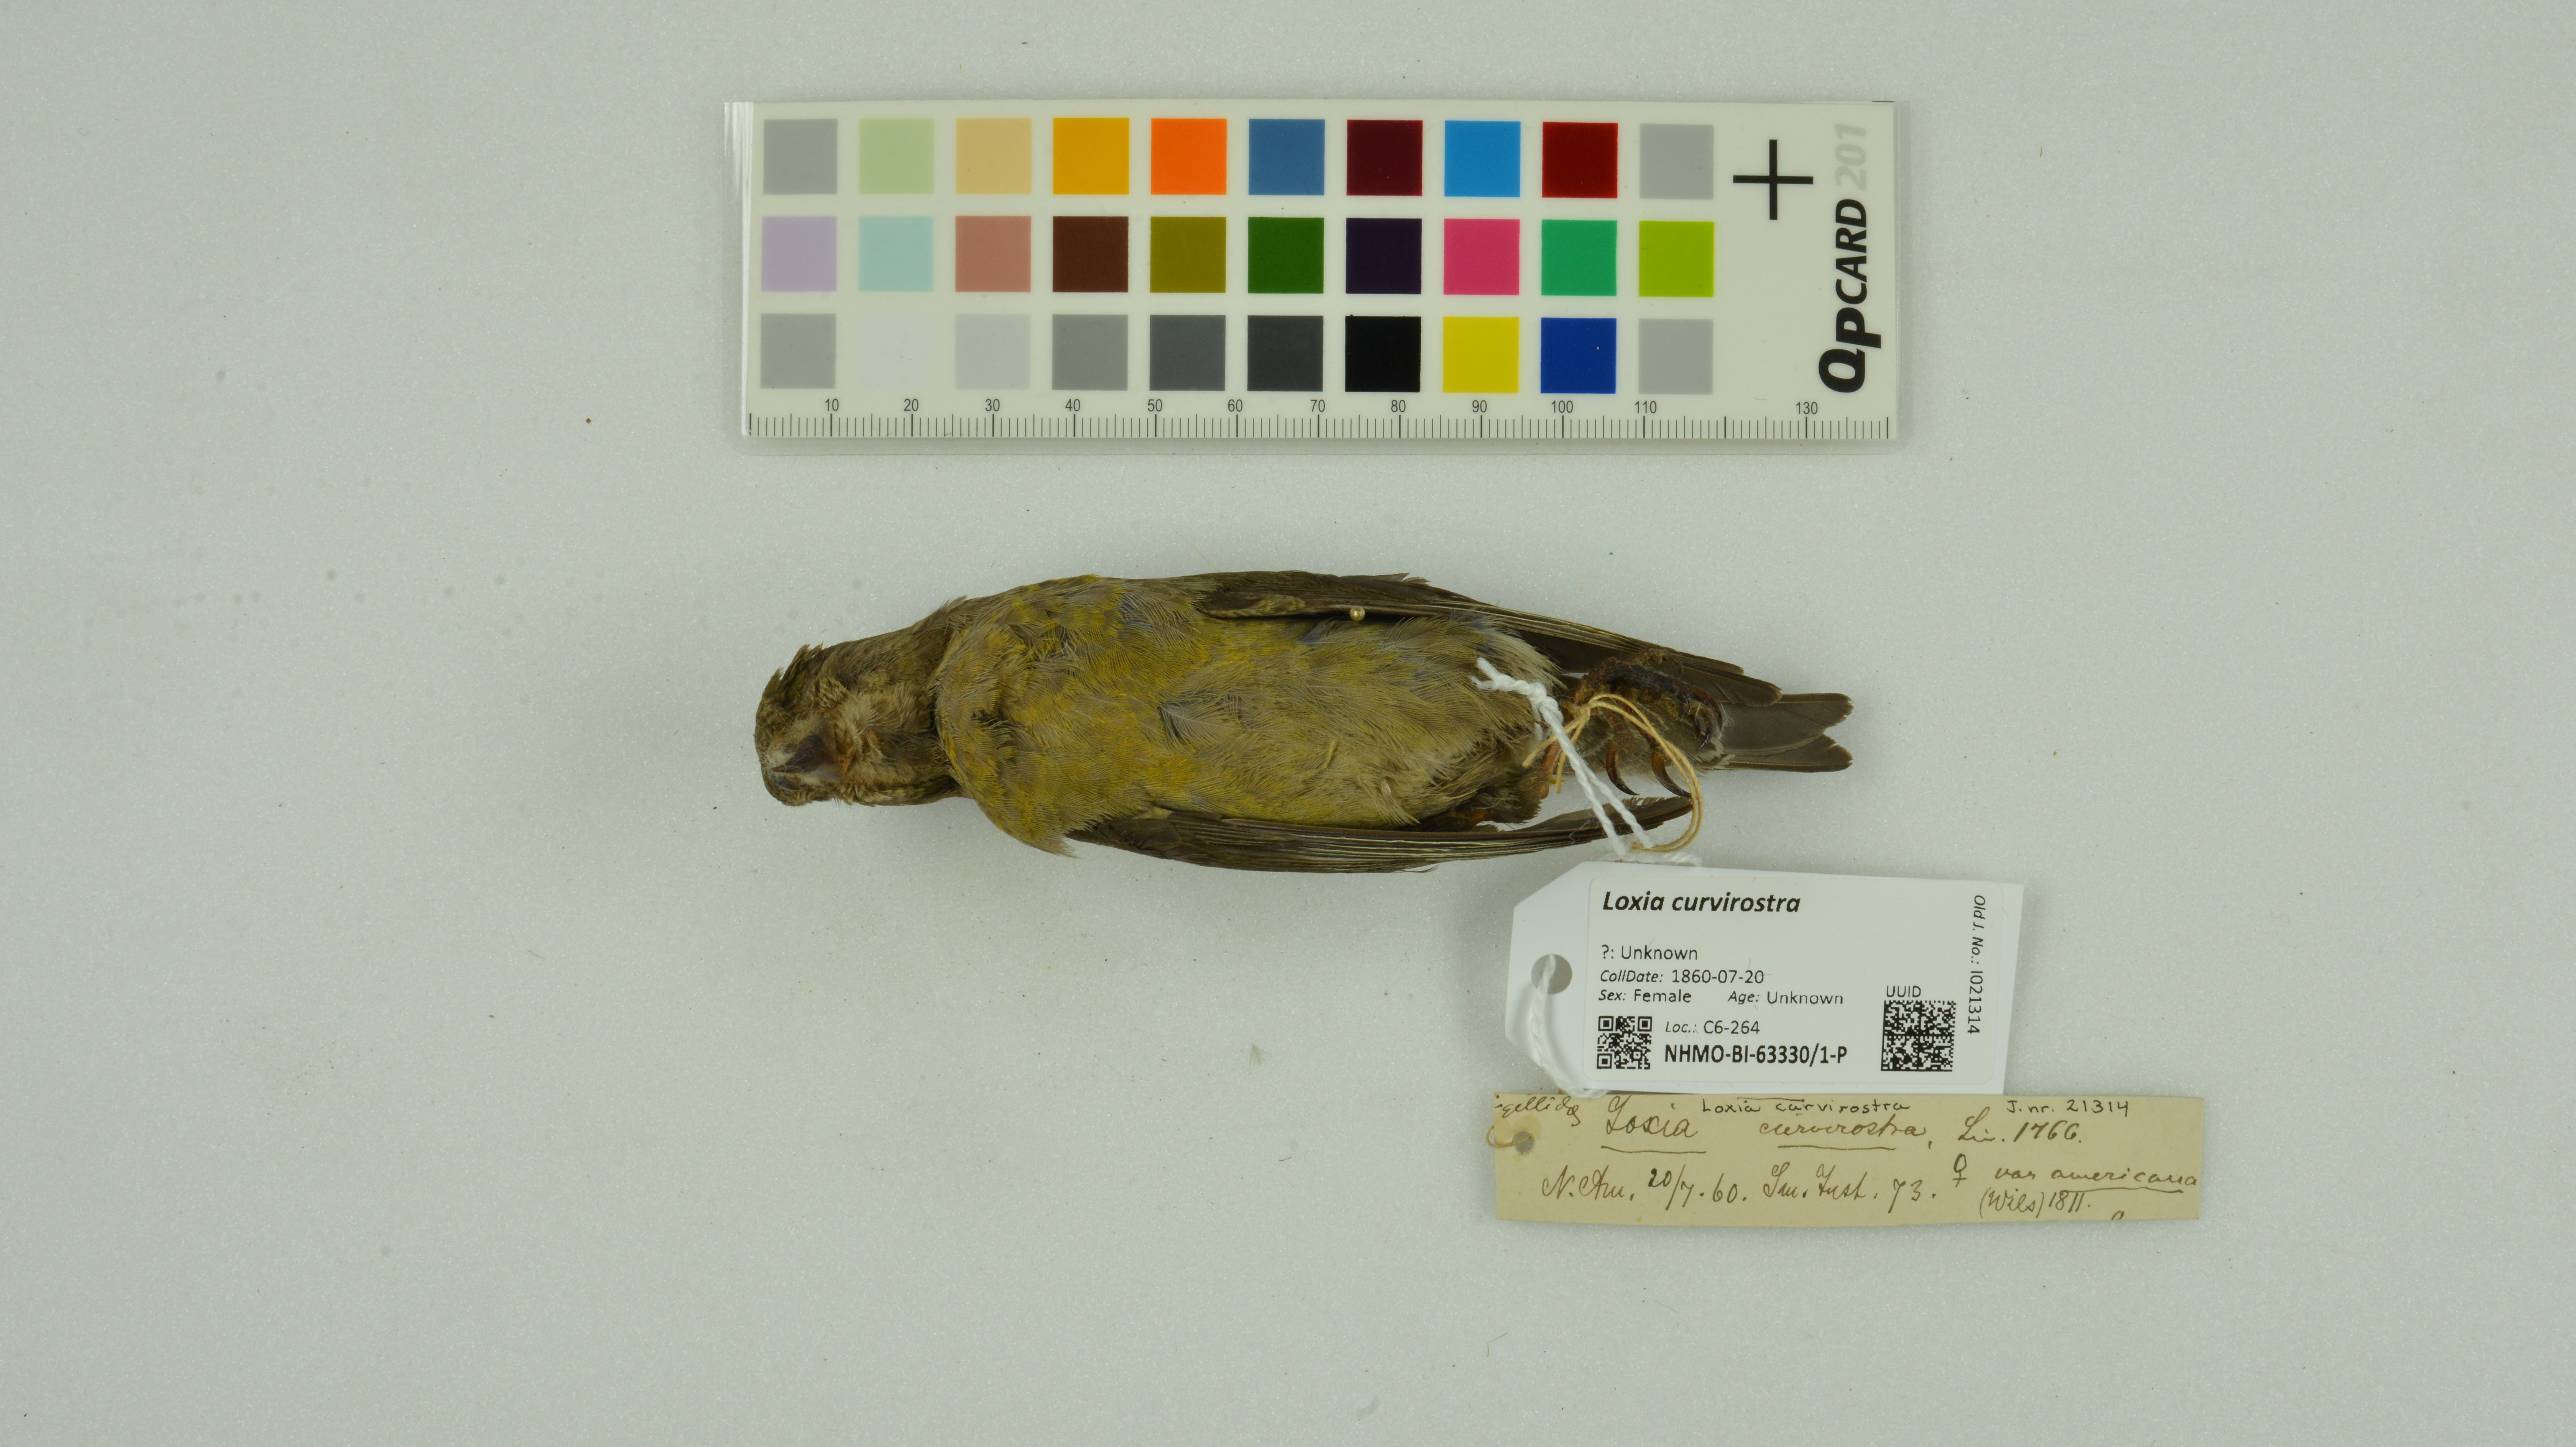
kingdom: Animalia
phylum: Chordata
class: Aves
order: Passeriformes
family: Fringillidae
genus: Loxia
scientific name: Loxia curvirostra
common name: Red crossbill
